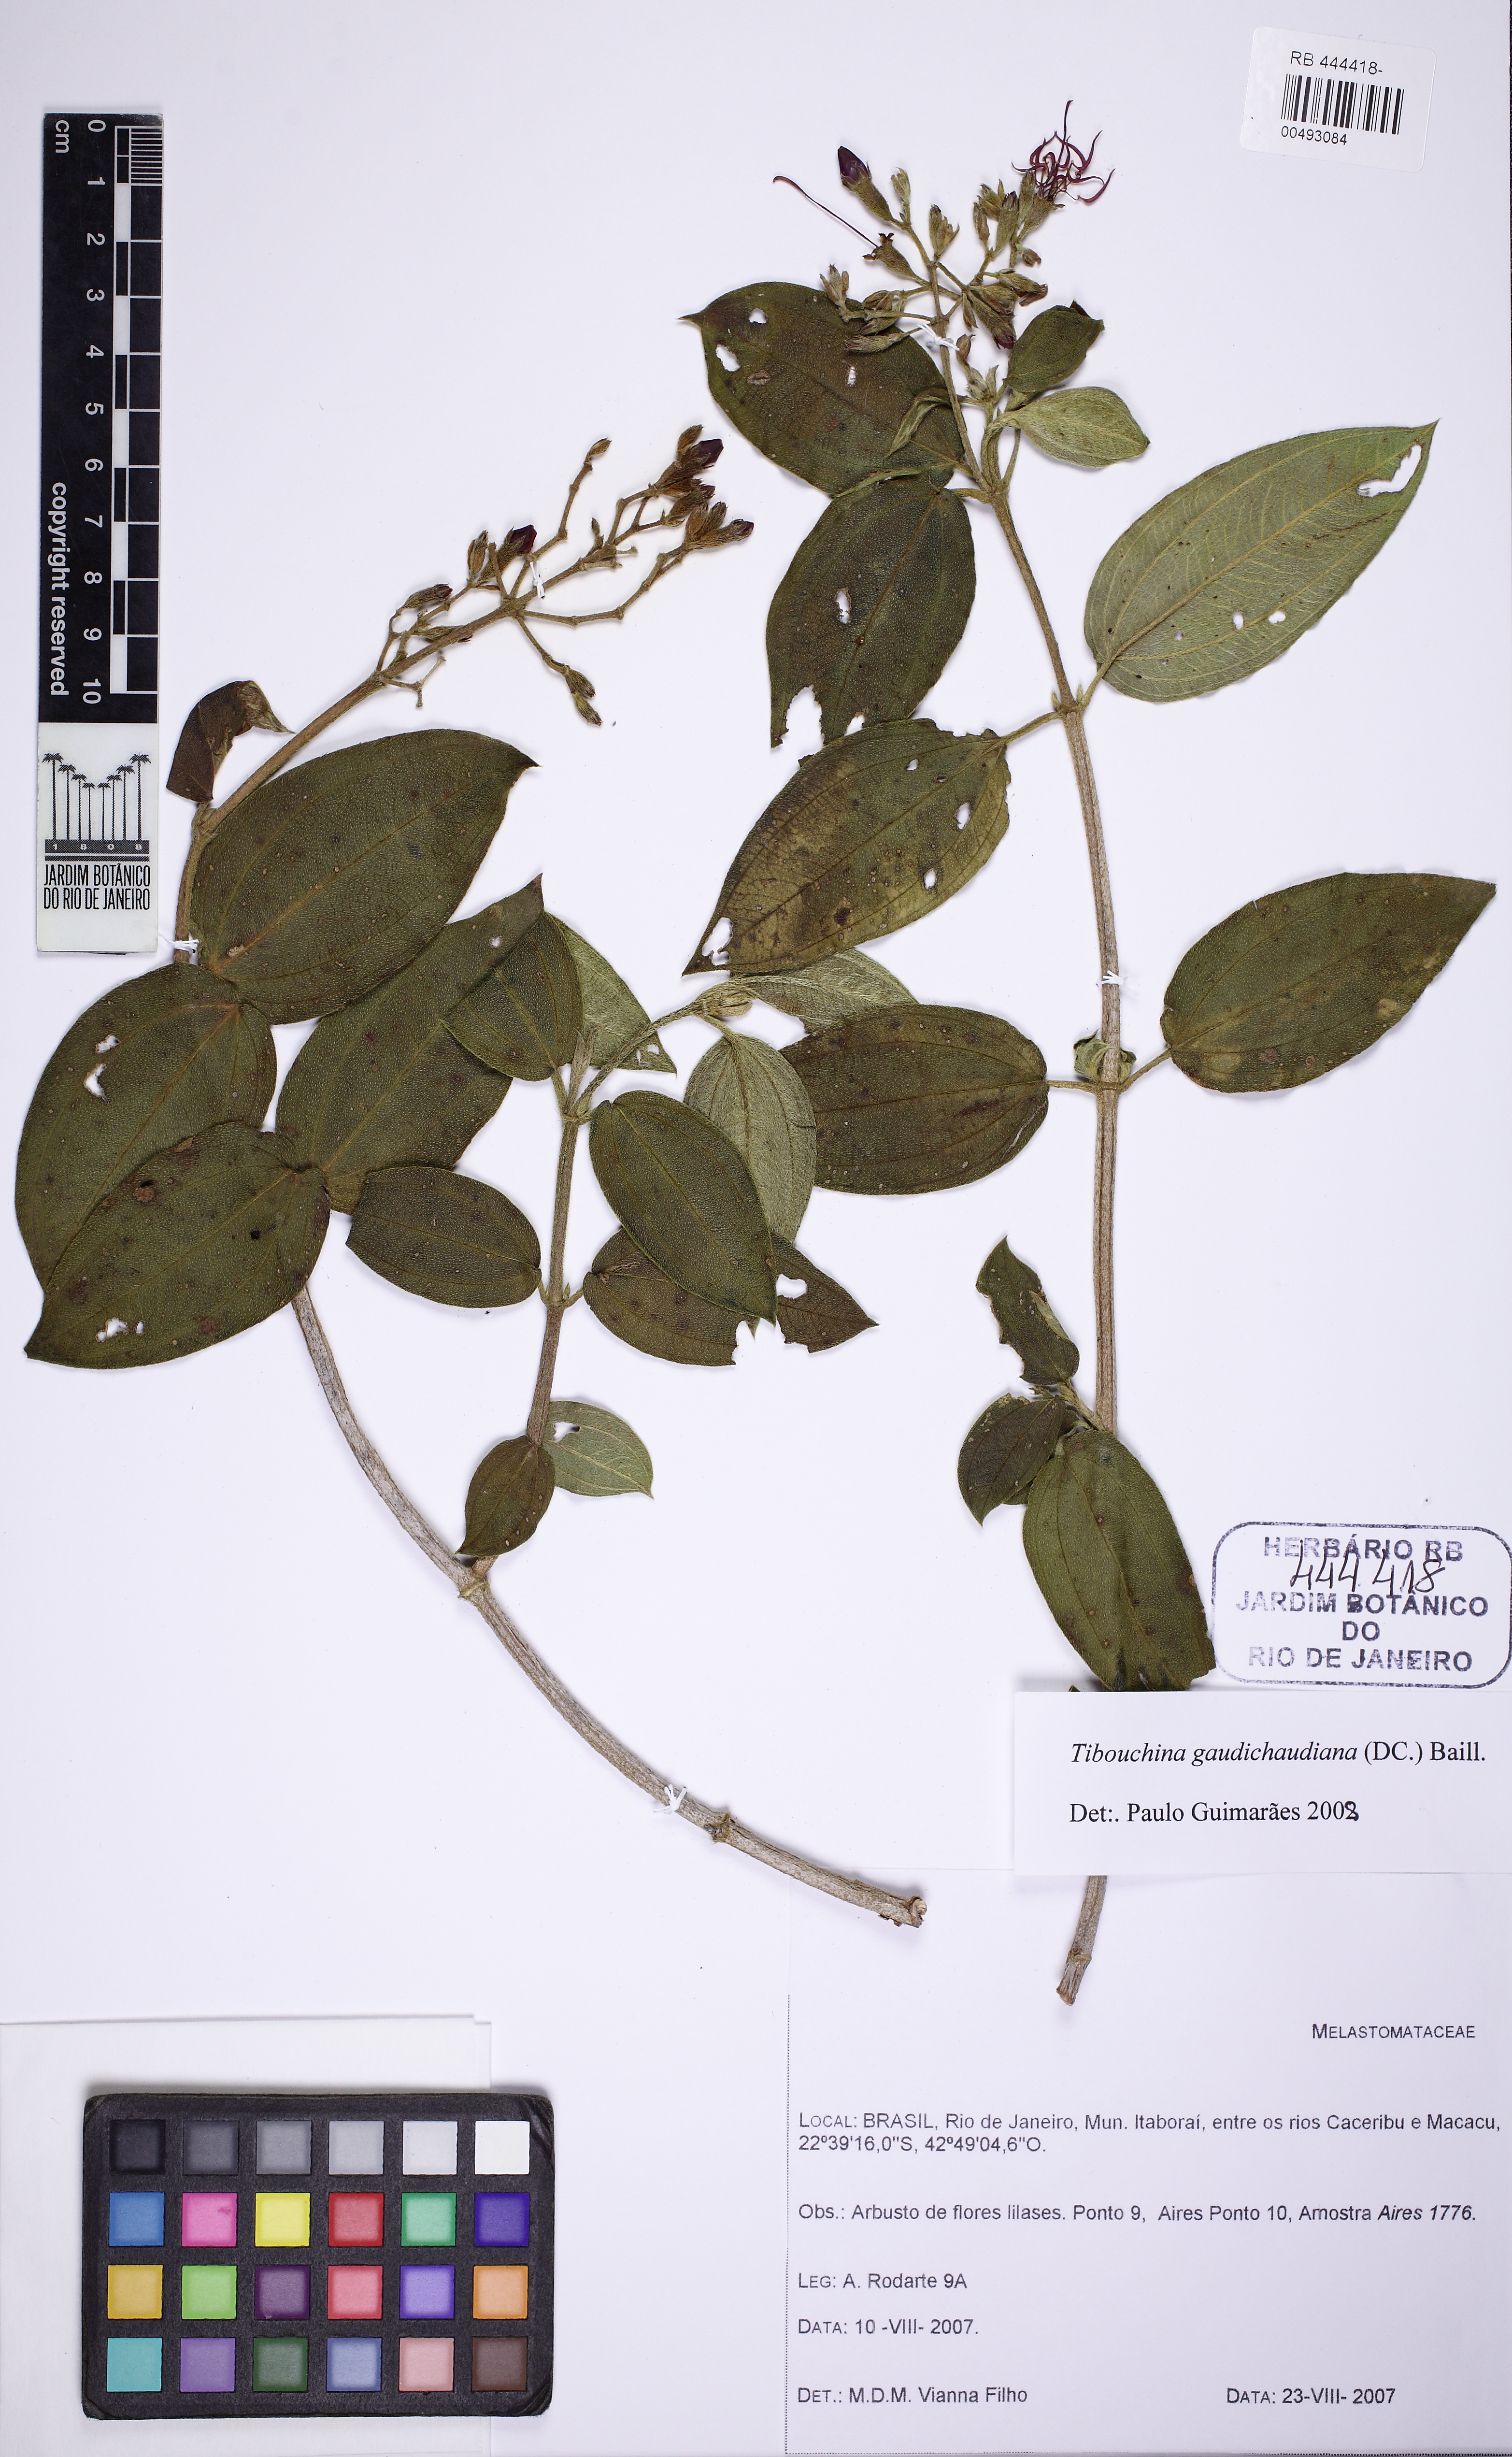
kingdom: Plantae
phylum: Tracheophyta
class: Magnoliopsida
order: Myrtales
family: Melastomataceae
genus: Pleroma
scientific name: Pleroma gaudichaudianum
